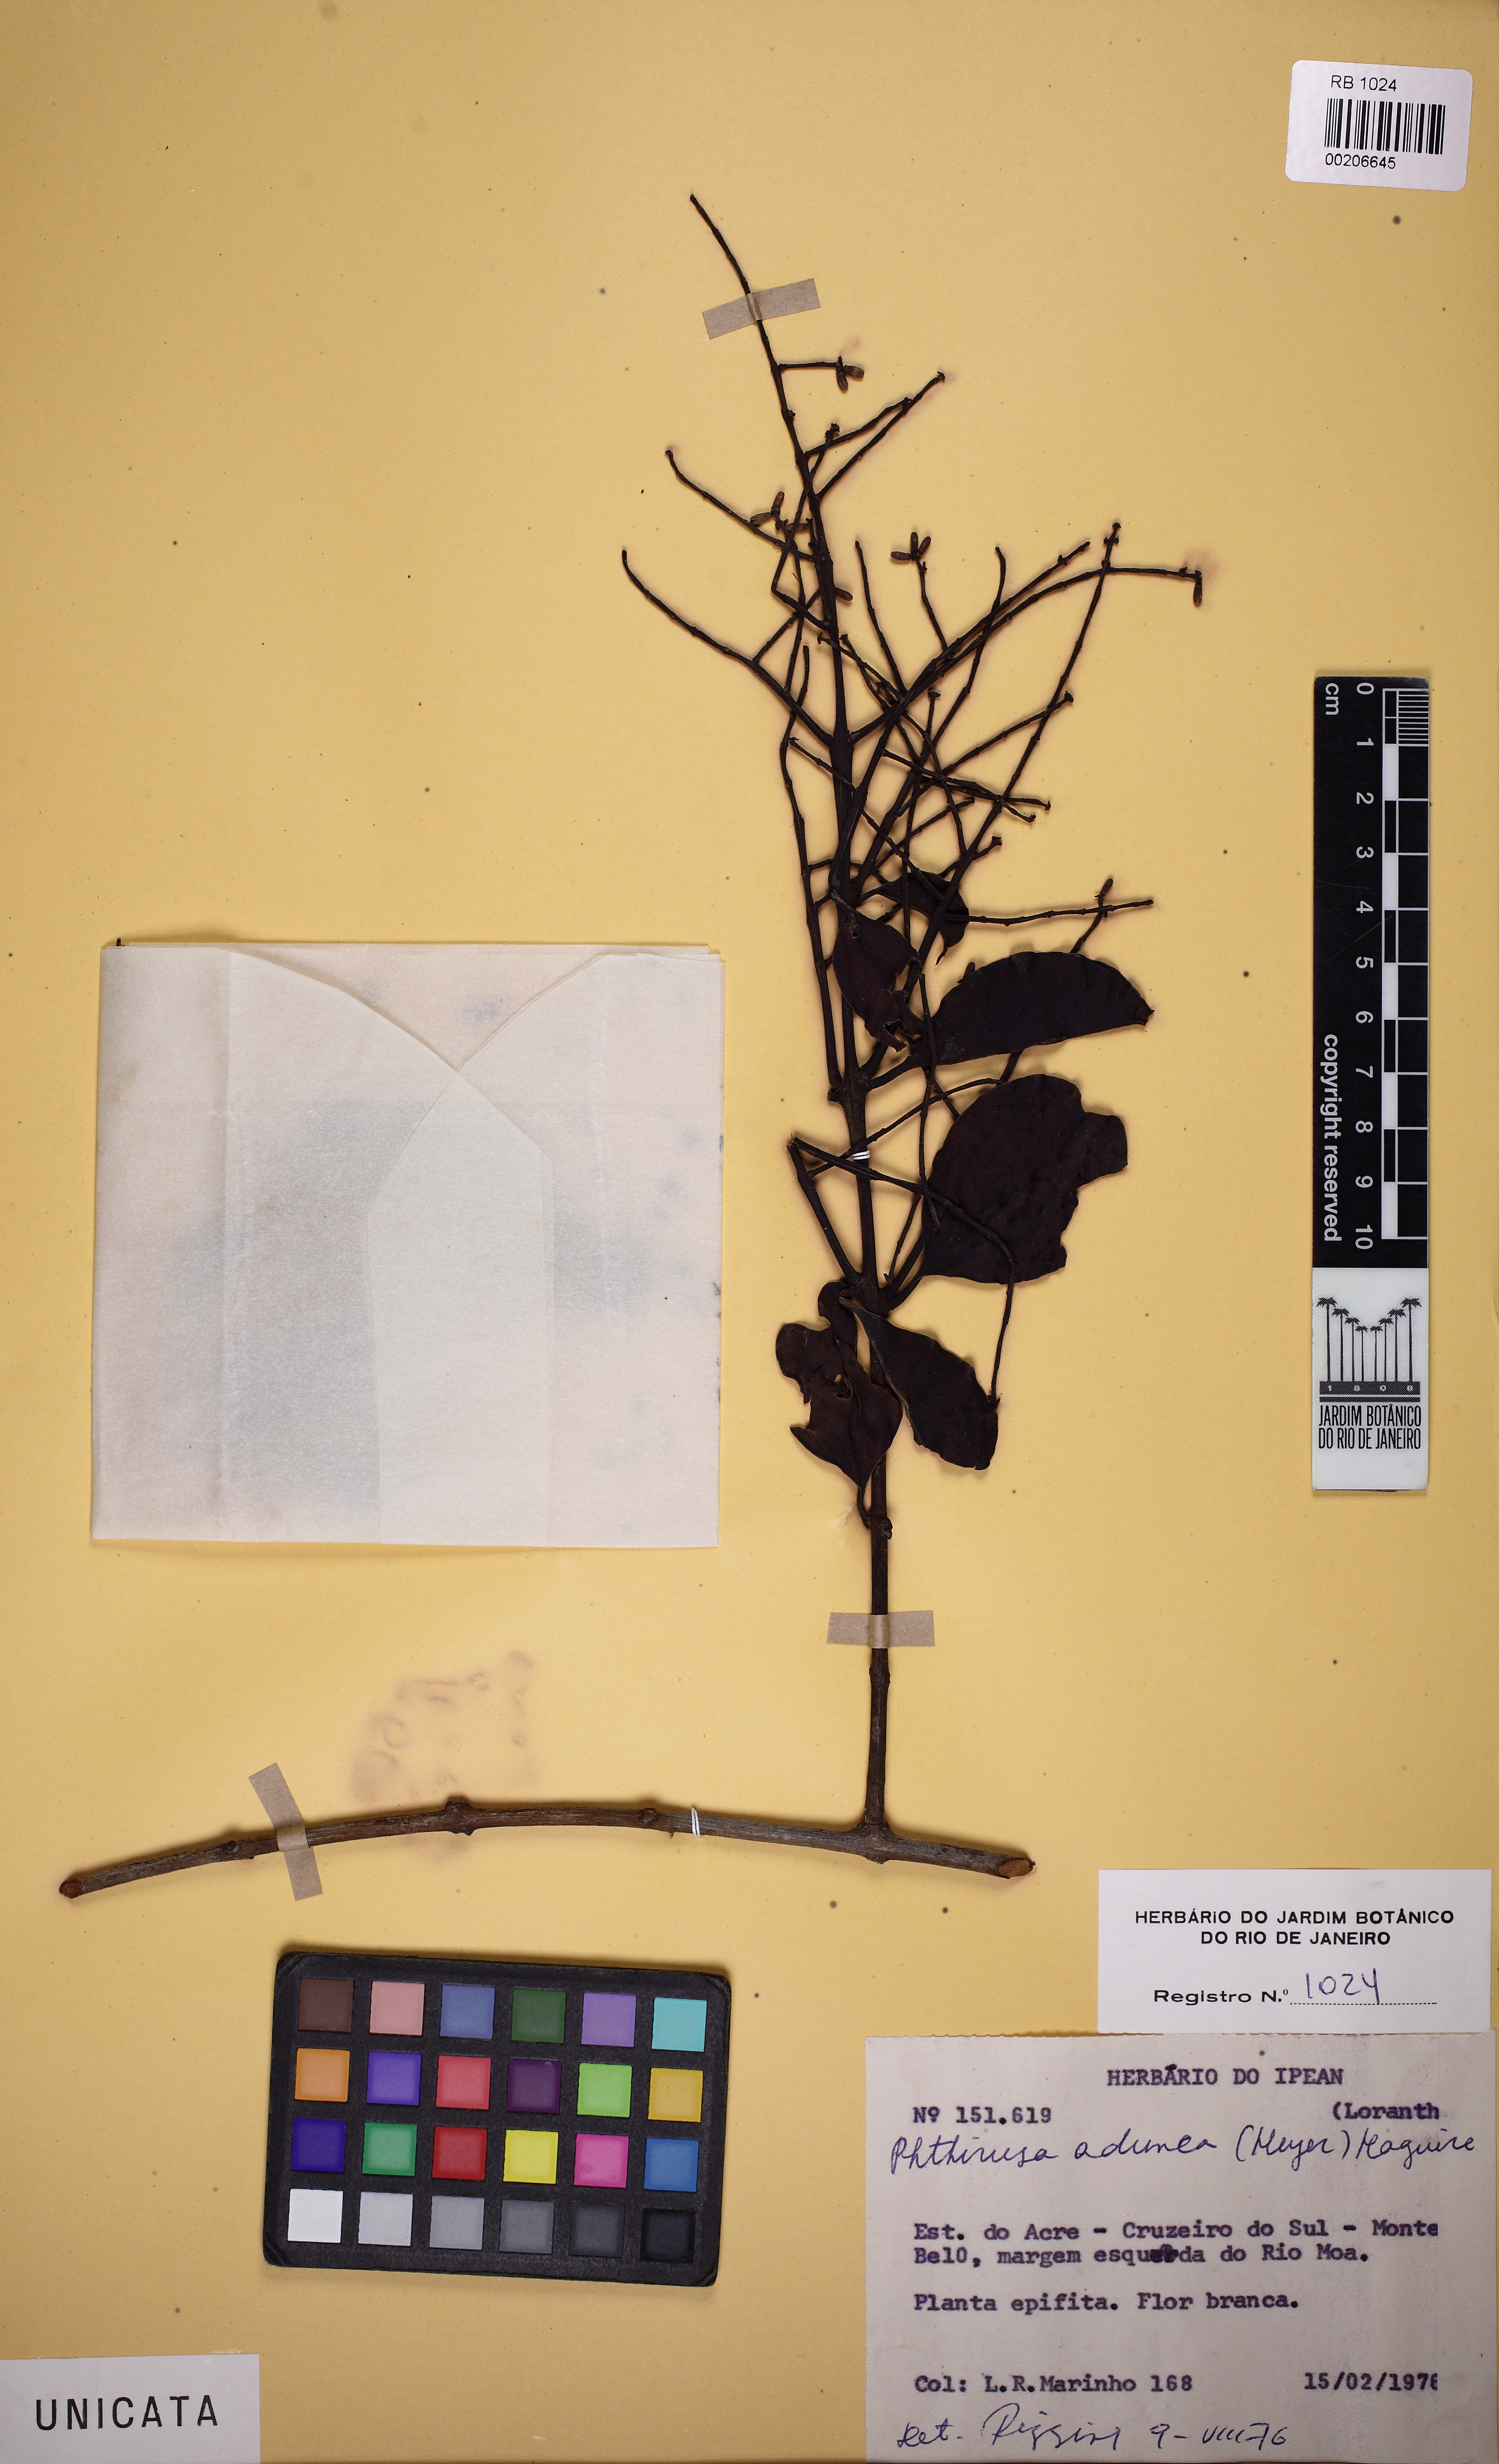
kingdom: Plantae
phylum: Tracheophyta
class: Magnoliopsida
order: Santalales
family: Loranthaceae
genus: Passovia
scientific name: Passovia pedunculata
